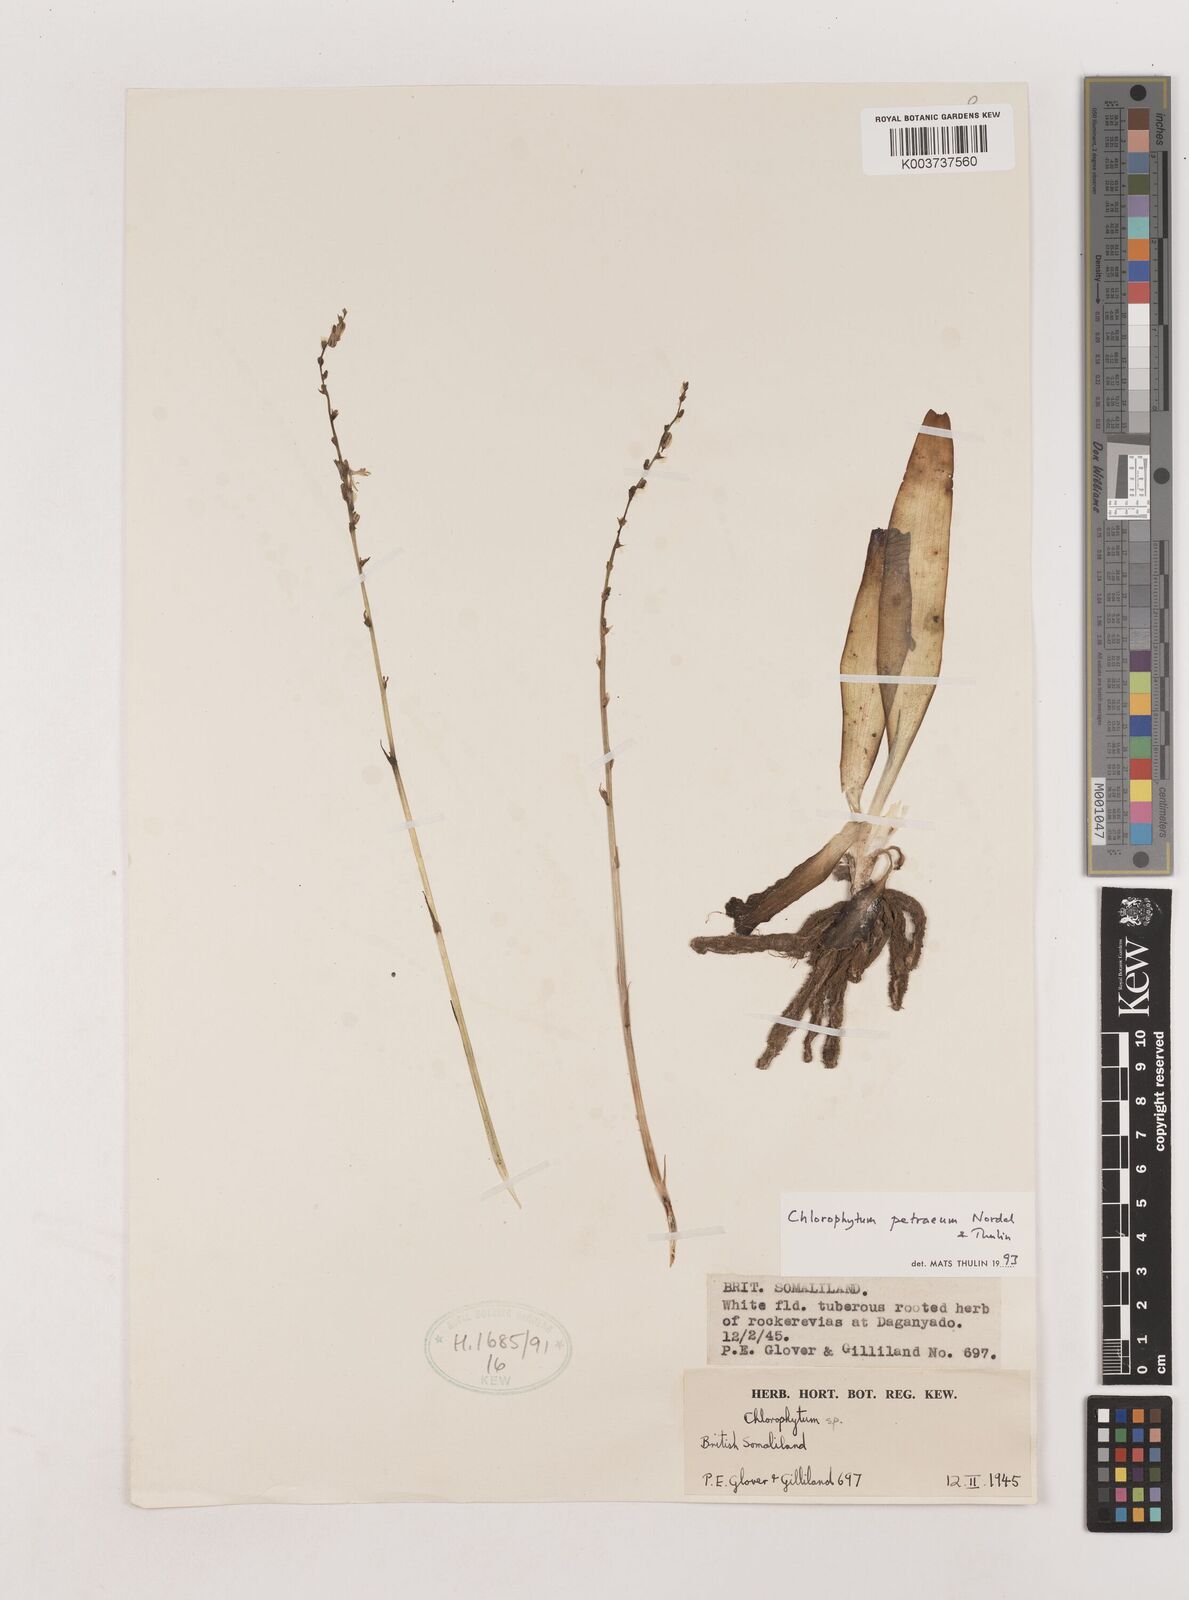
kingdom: Plantae
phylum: Tracheophyta
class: Liliopsida
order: Asparagales
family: Asparagaceae
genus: Chlorophytum
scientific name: Chlorophytum petraeum
